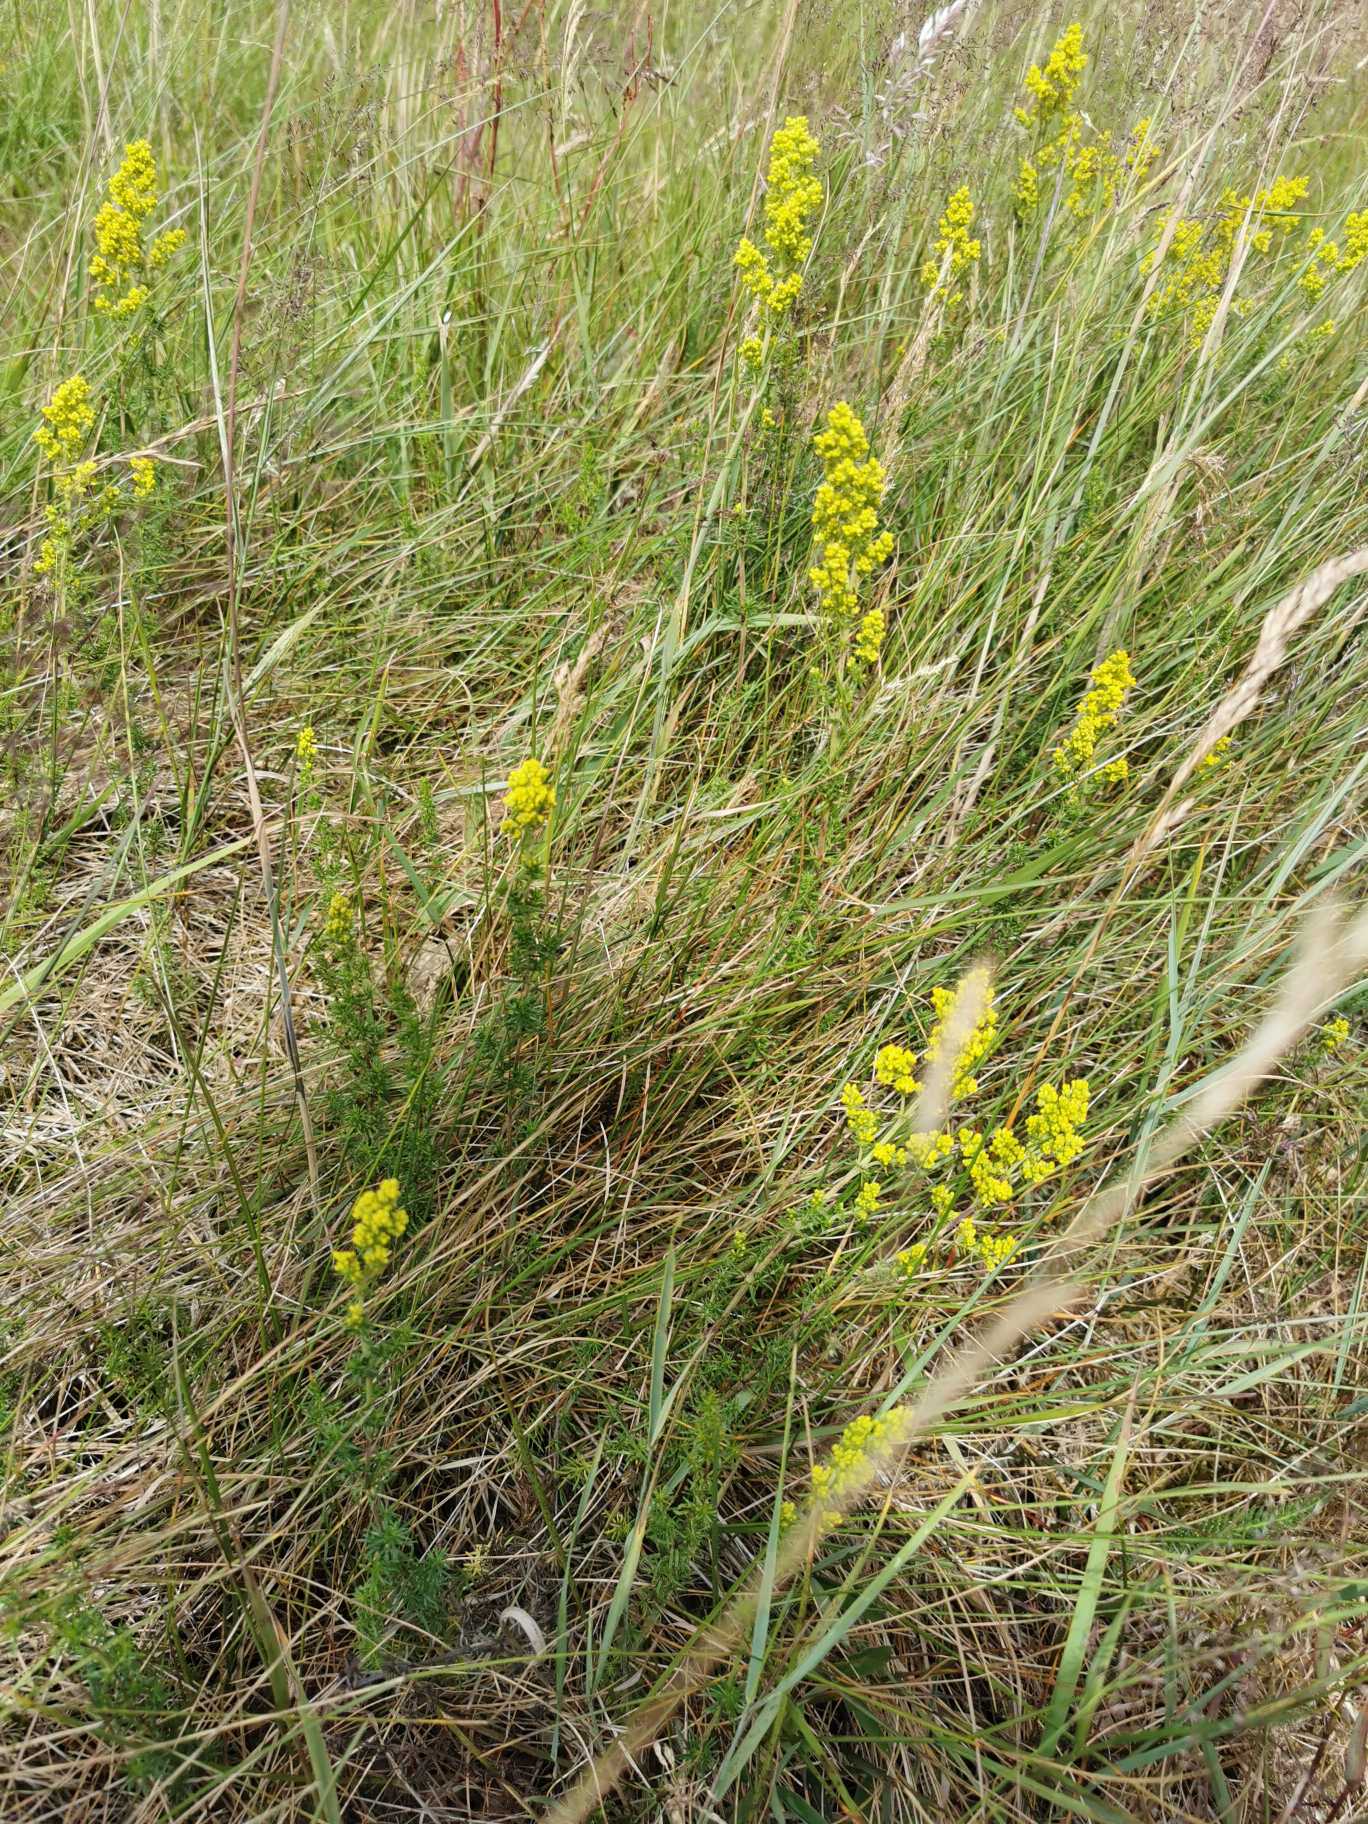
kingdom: Plantae
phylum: Tracheophyta
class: Magnoliopsida
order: Gentianales
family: Rubiaceae
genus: Galium
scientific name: Galium verum
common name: Gul snerre
